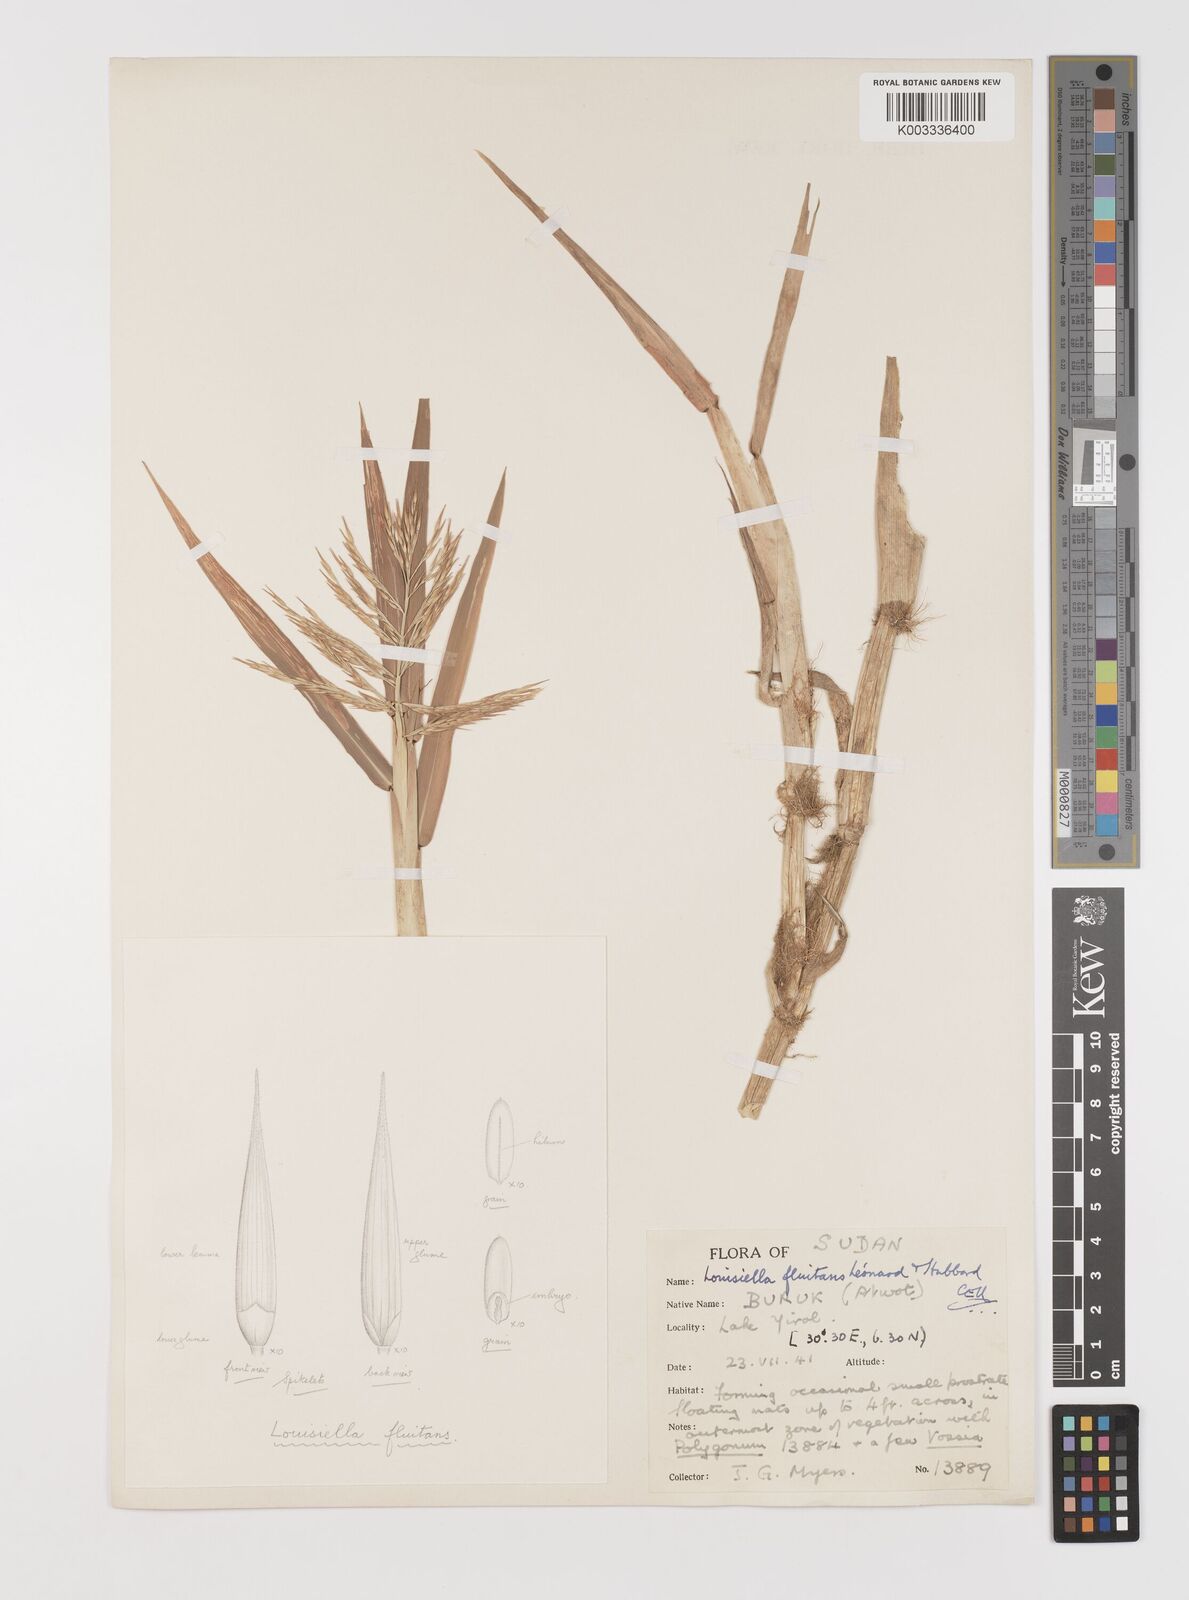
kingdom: Plantae
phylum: Tracheophyta
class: Liliopsida
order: Poales
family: Poaceae
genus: Louisiella
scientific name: Louisiella fluitans
